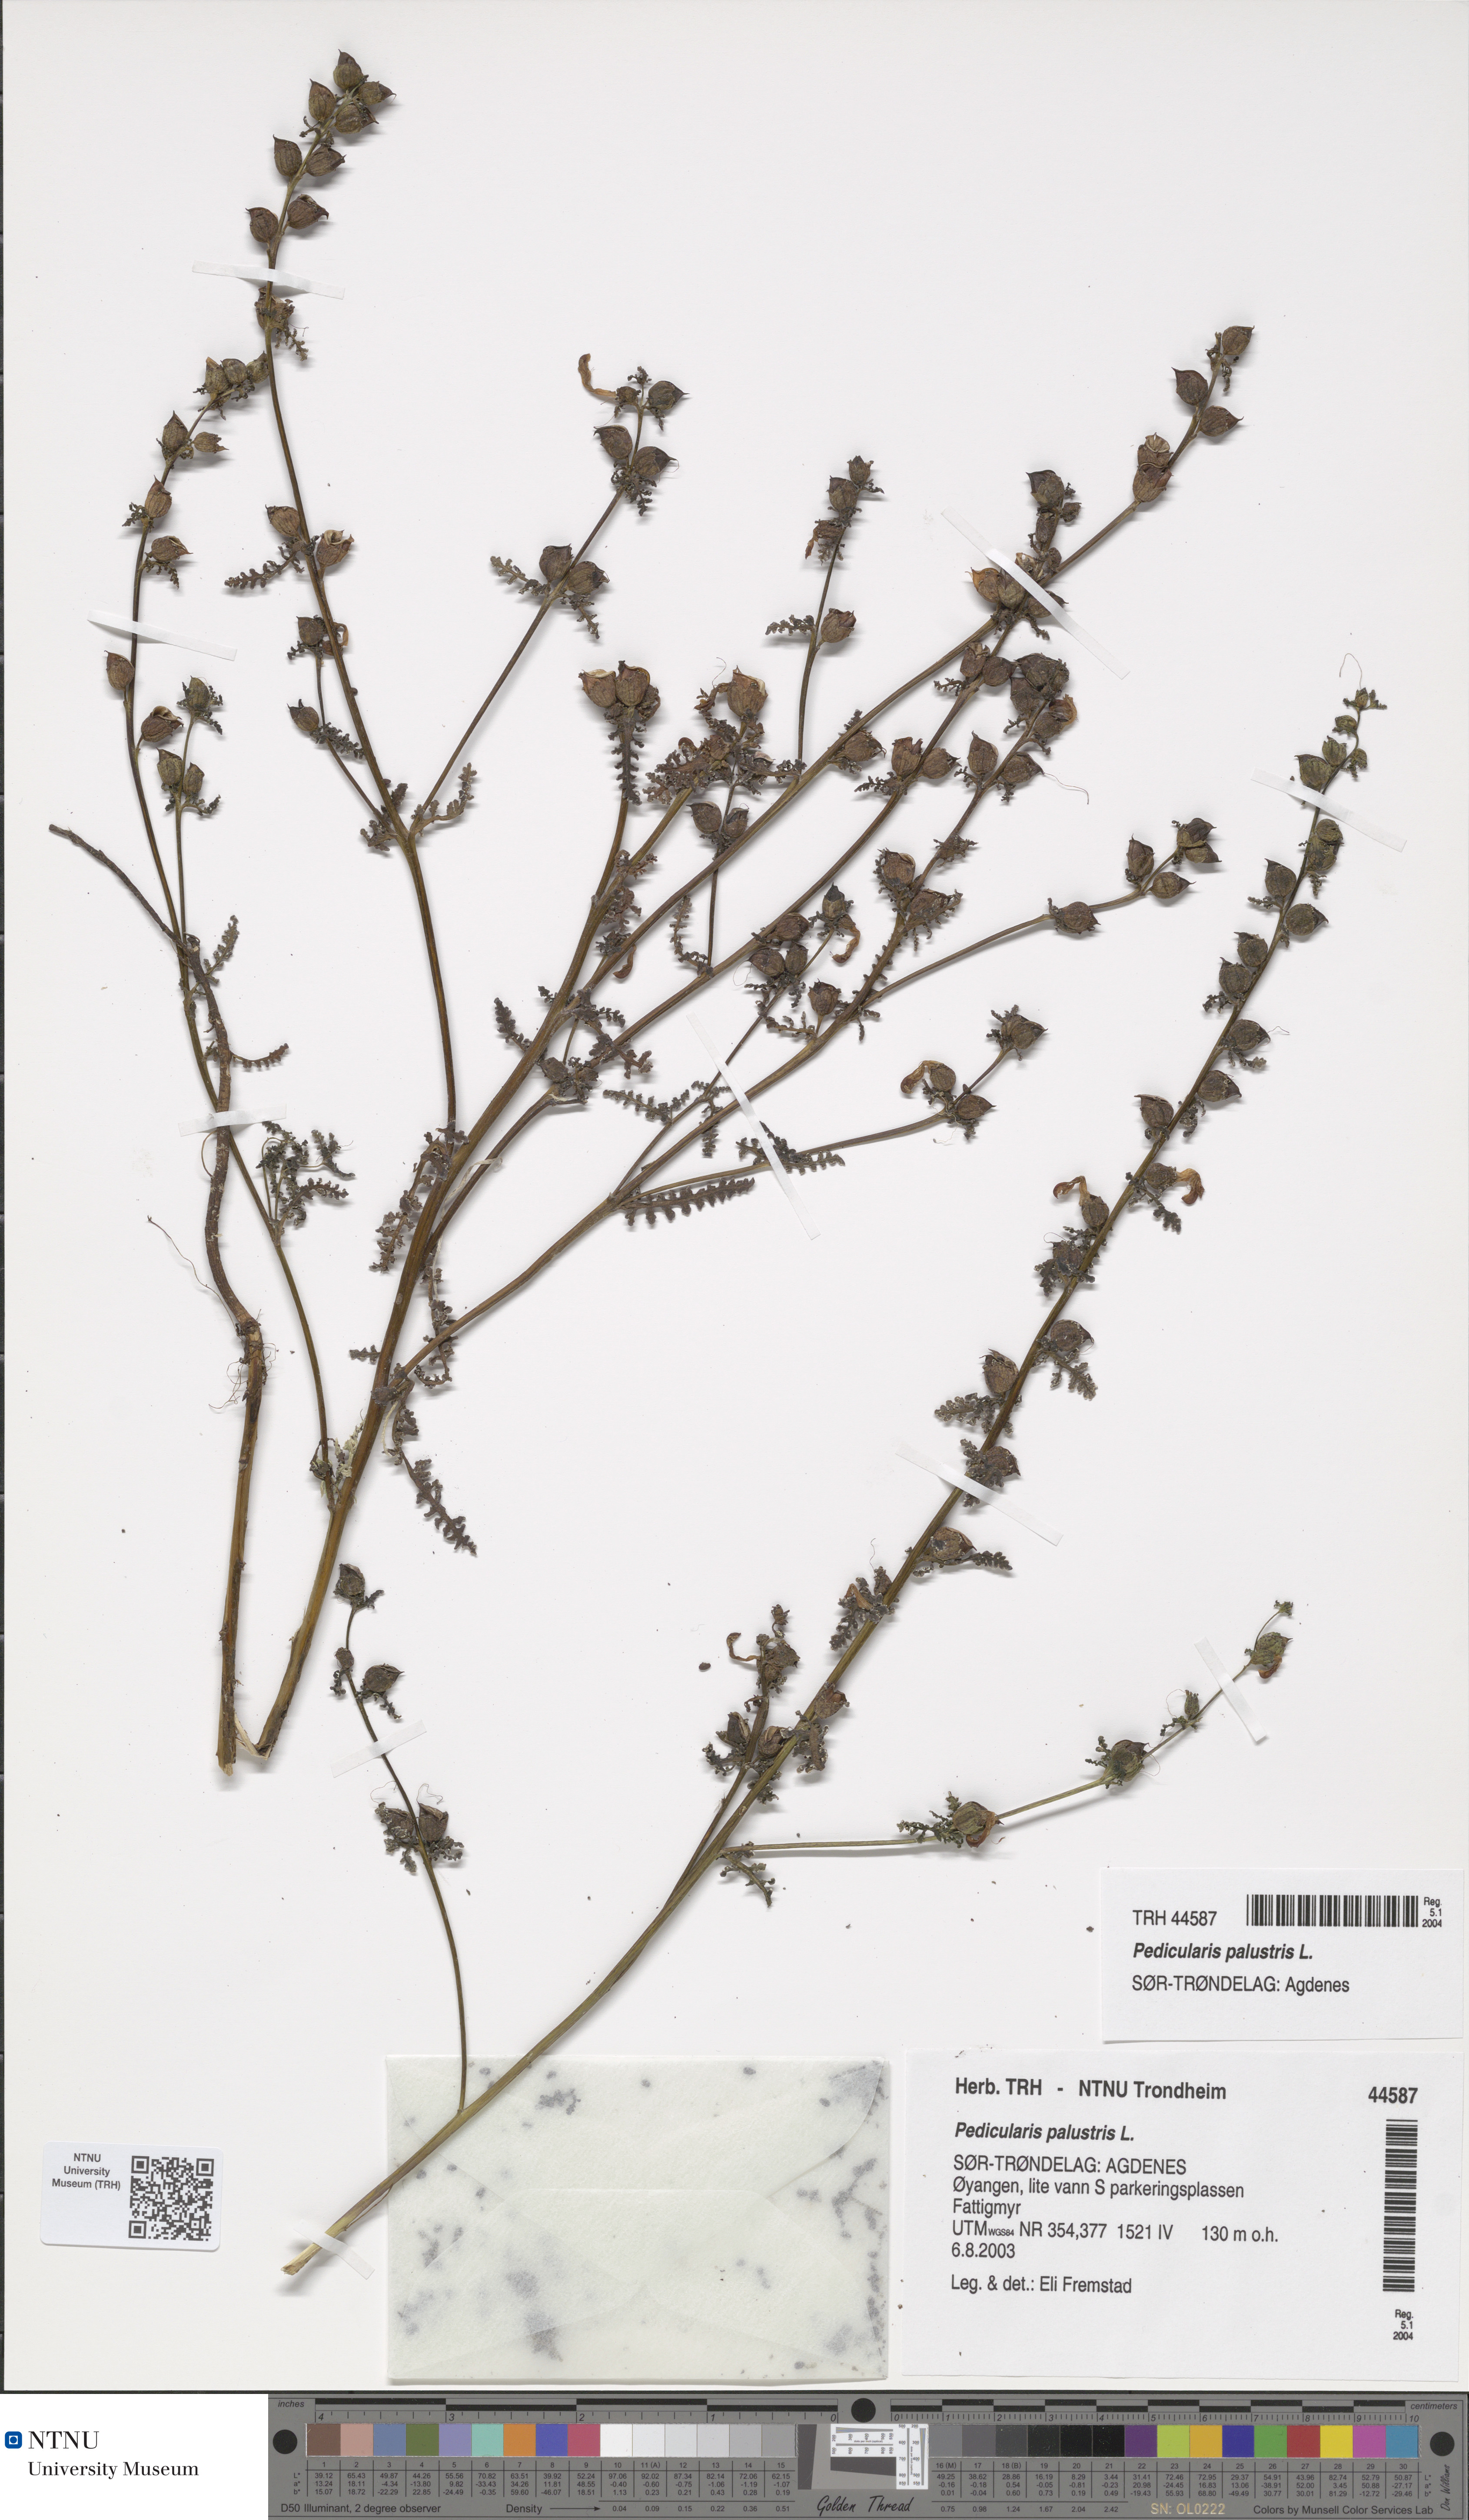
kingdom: Plantae
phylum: Tracheophyta
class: Magnoliopsida
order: Lamiales
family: Orobanchaceae
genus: Pedicularis
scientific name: Pedicularis palustris
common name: Marsh lousewort
